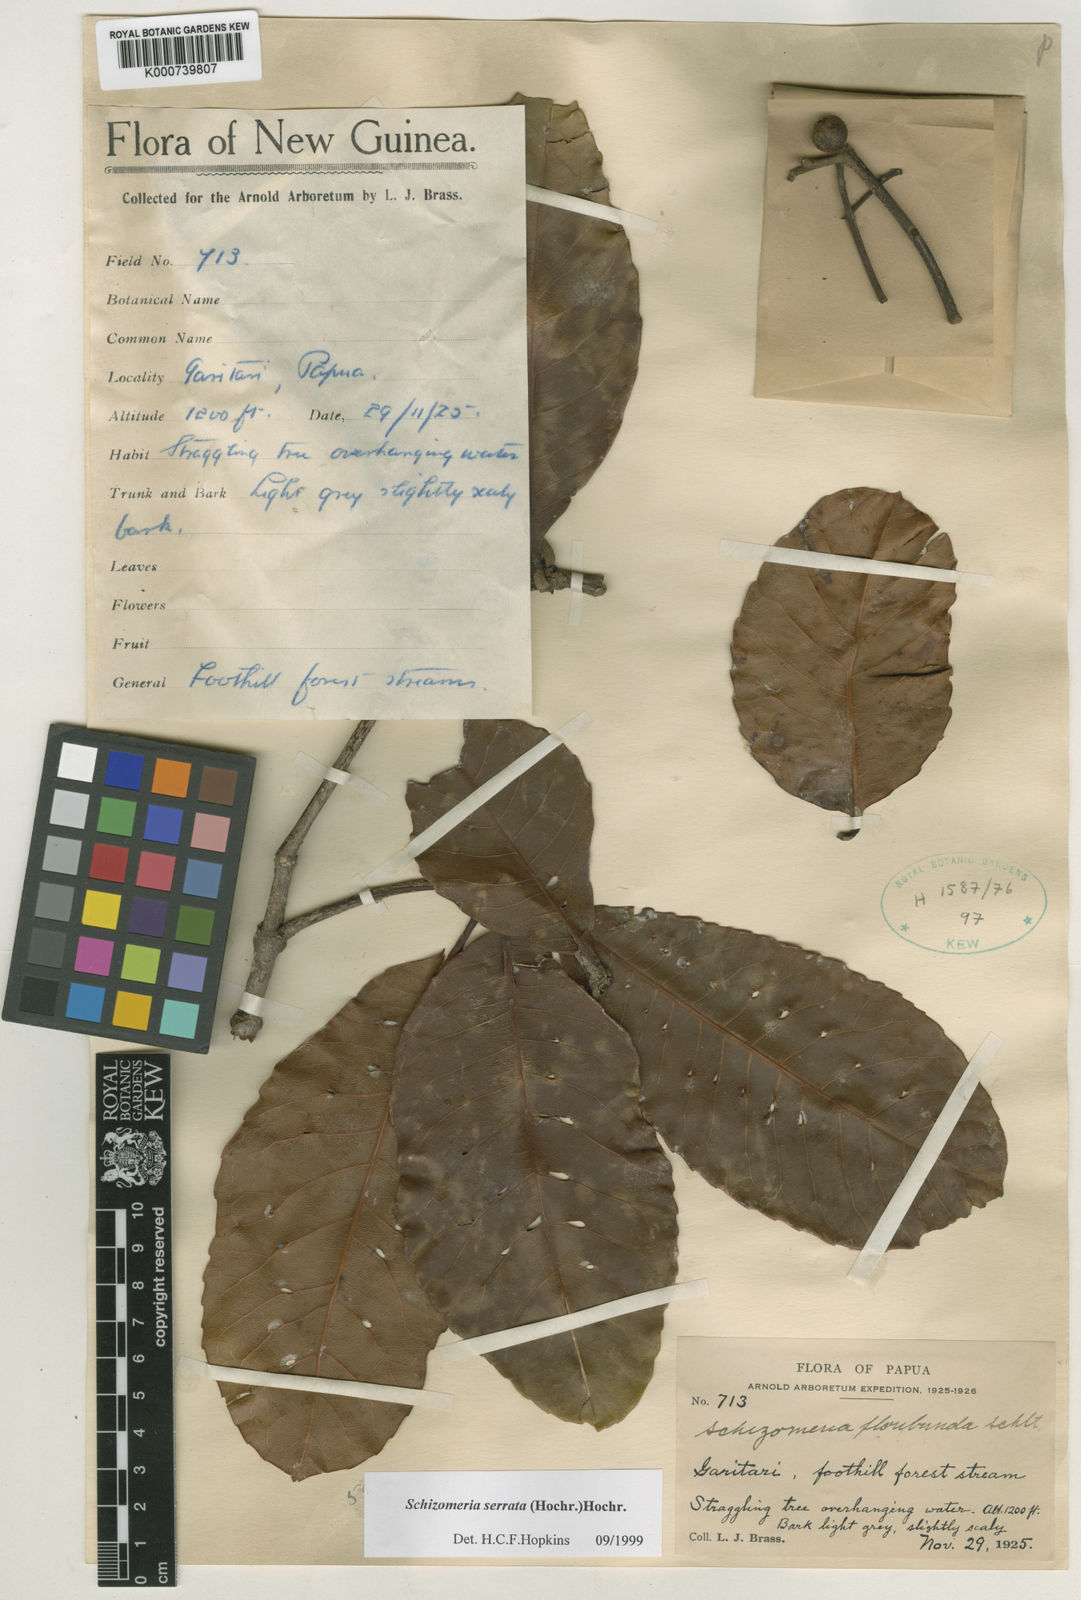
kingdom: Plantae
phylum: Tracheophyta
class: Magnoliopsida
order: Oxalidales
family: Cunoniaceae
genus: Schizomeria
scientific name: Schizomeria serrata
